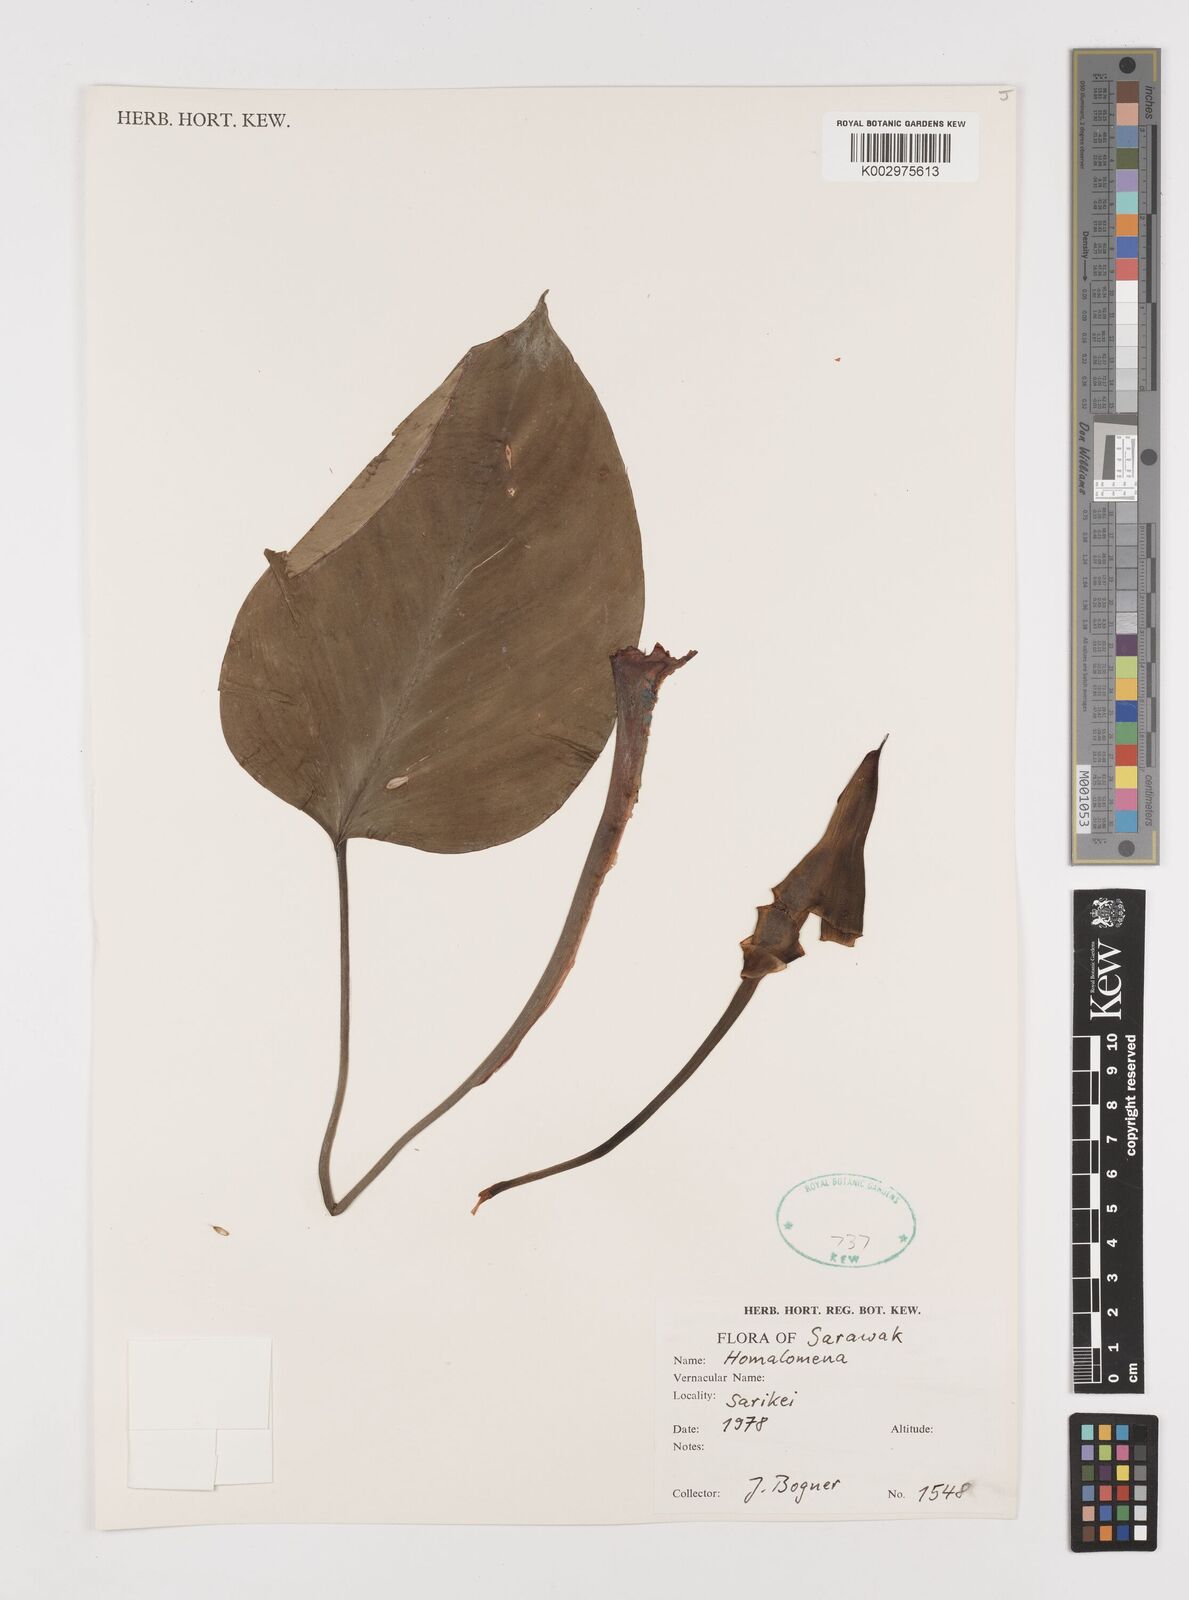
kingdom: Plantae
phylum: Tracheophyta
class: Liliopsida
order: Alismatales
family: Araceae
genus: Homalomena
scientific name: Homalomena
